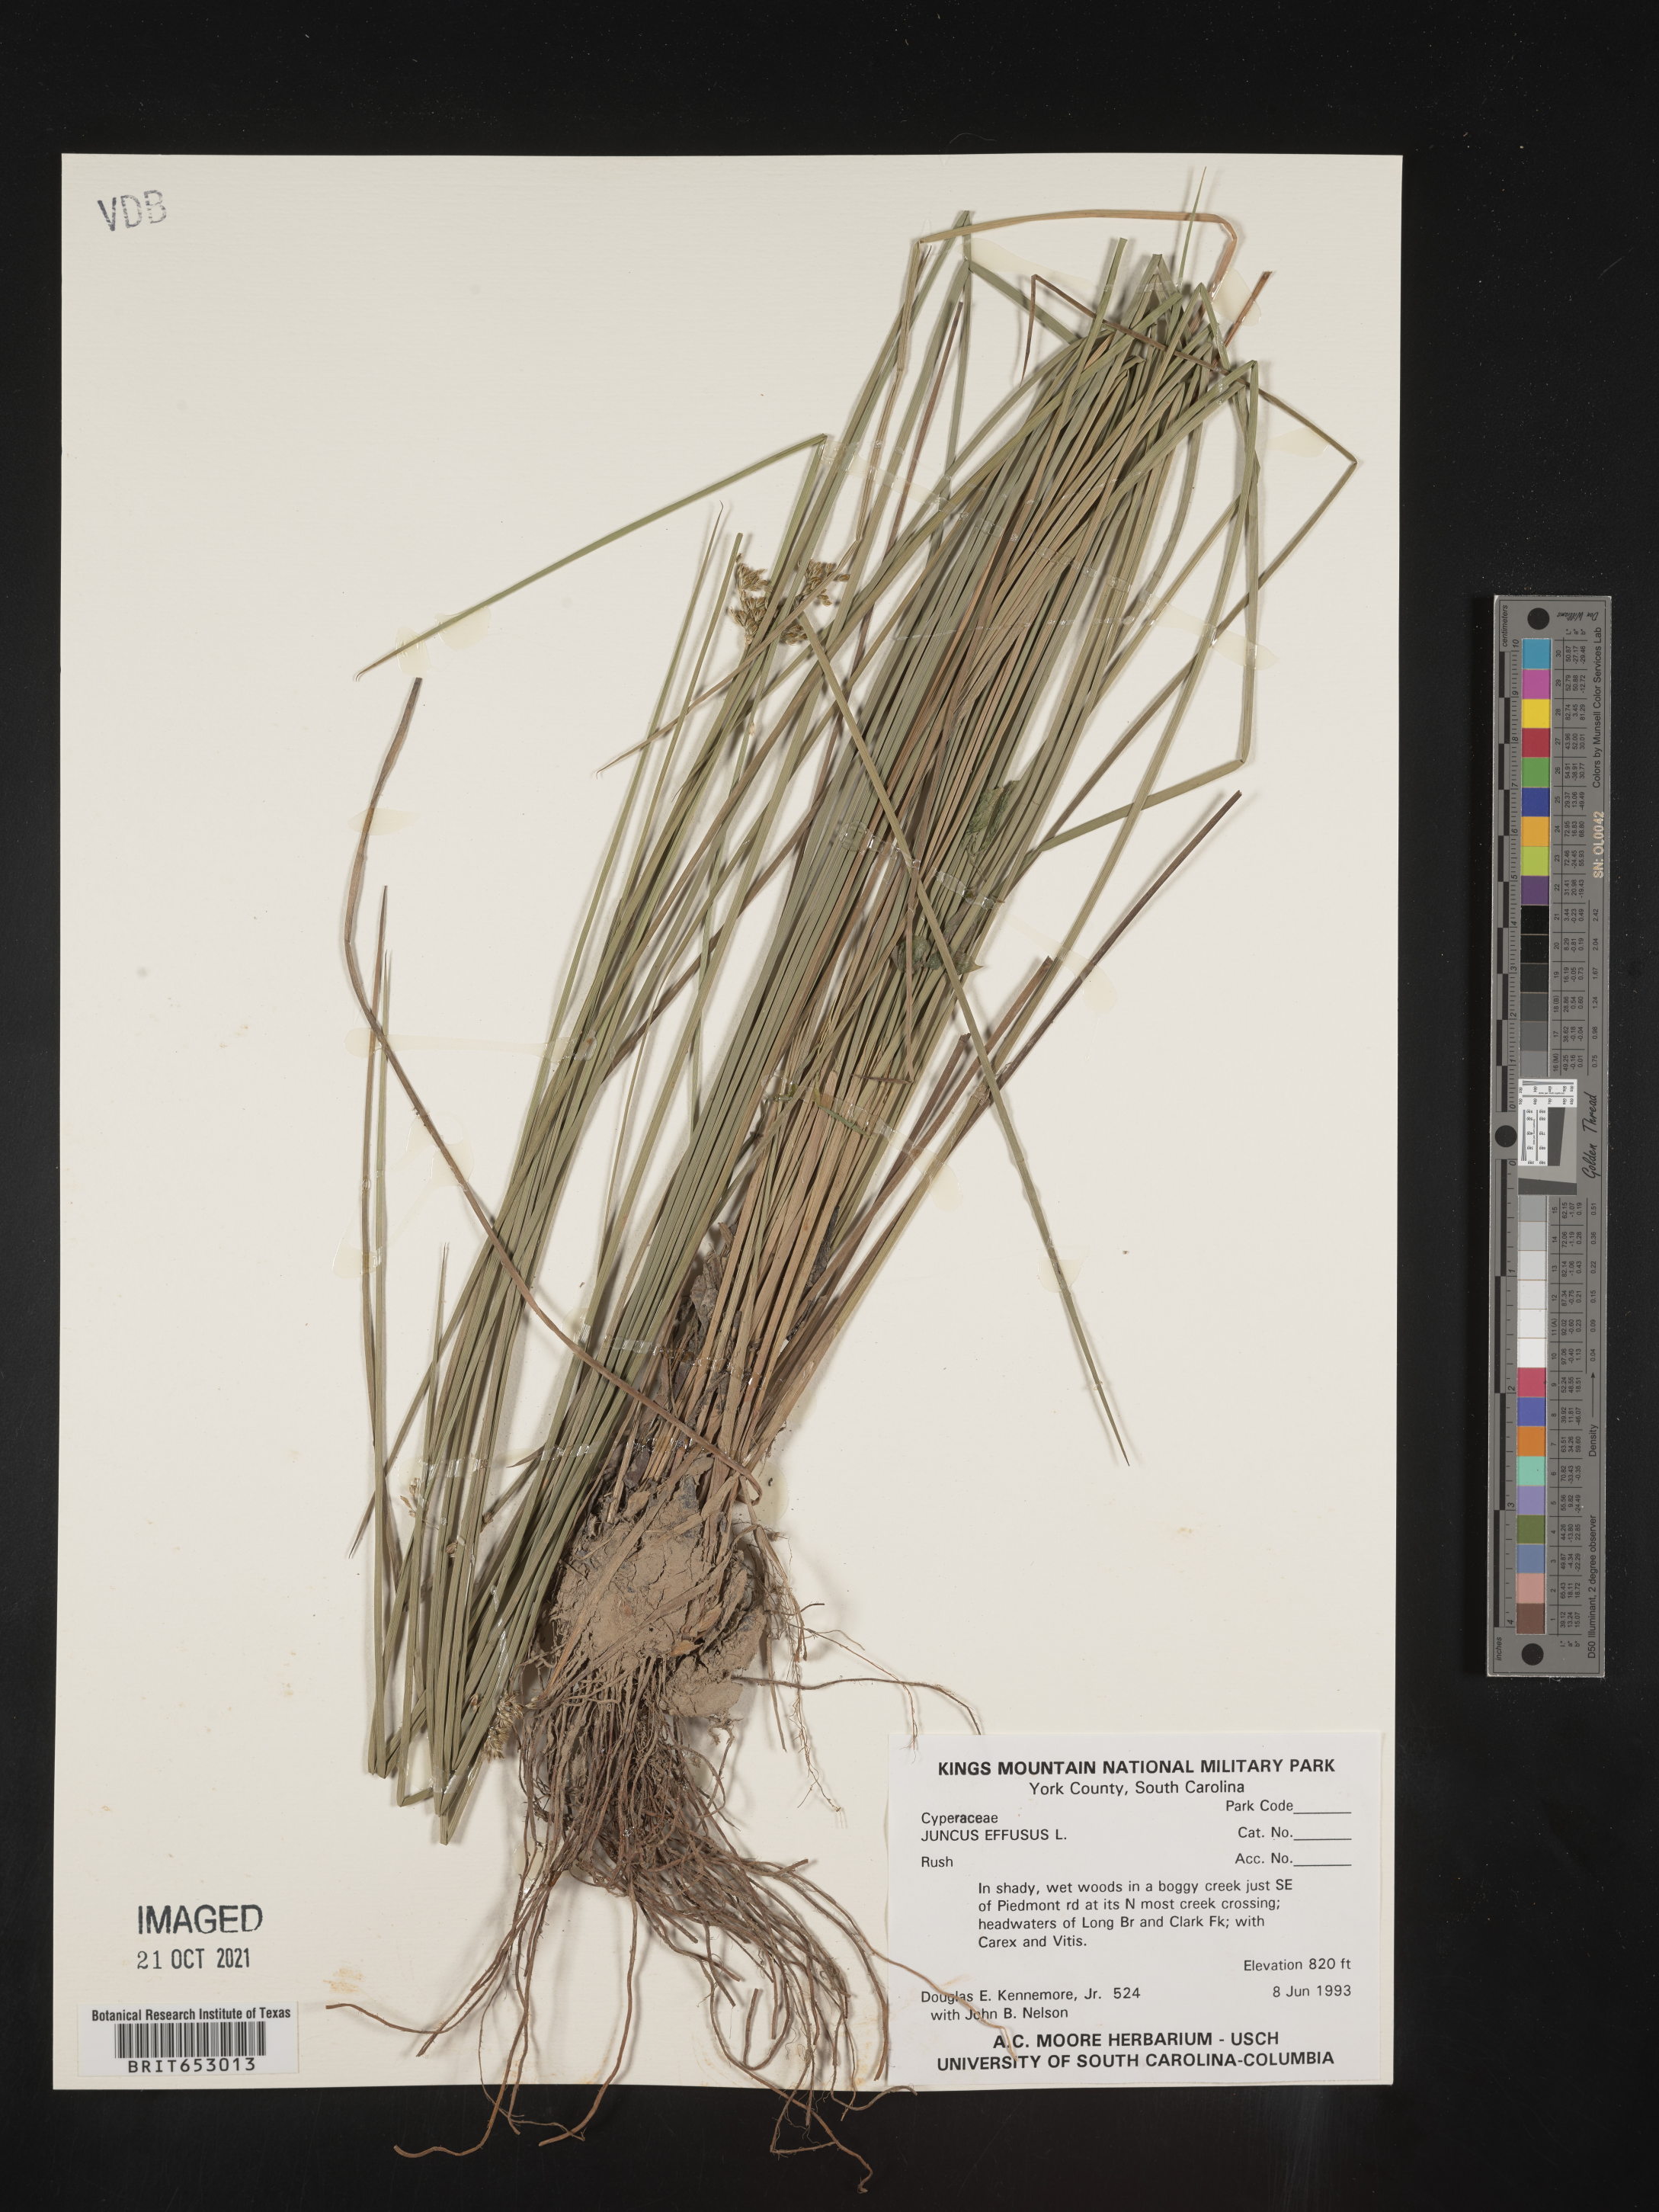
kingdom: Plantae
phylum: Tracheophyta
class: Liliopsida
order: Poales
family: Juncaceae
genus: Juncus
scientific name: Juncus effusus
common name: Soft rush
